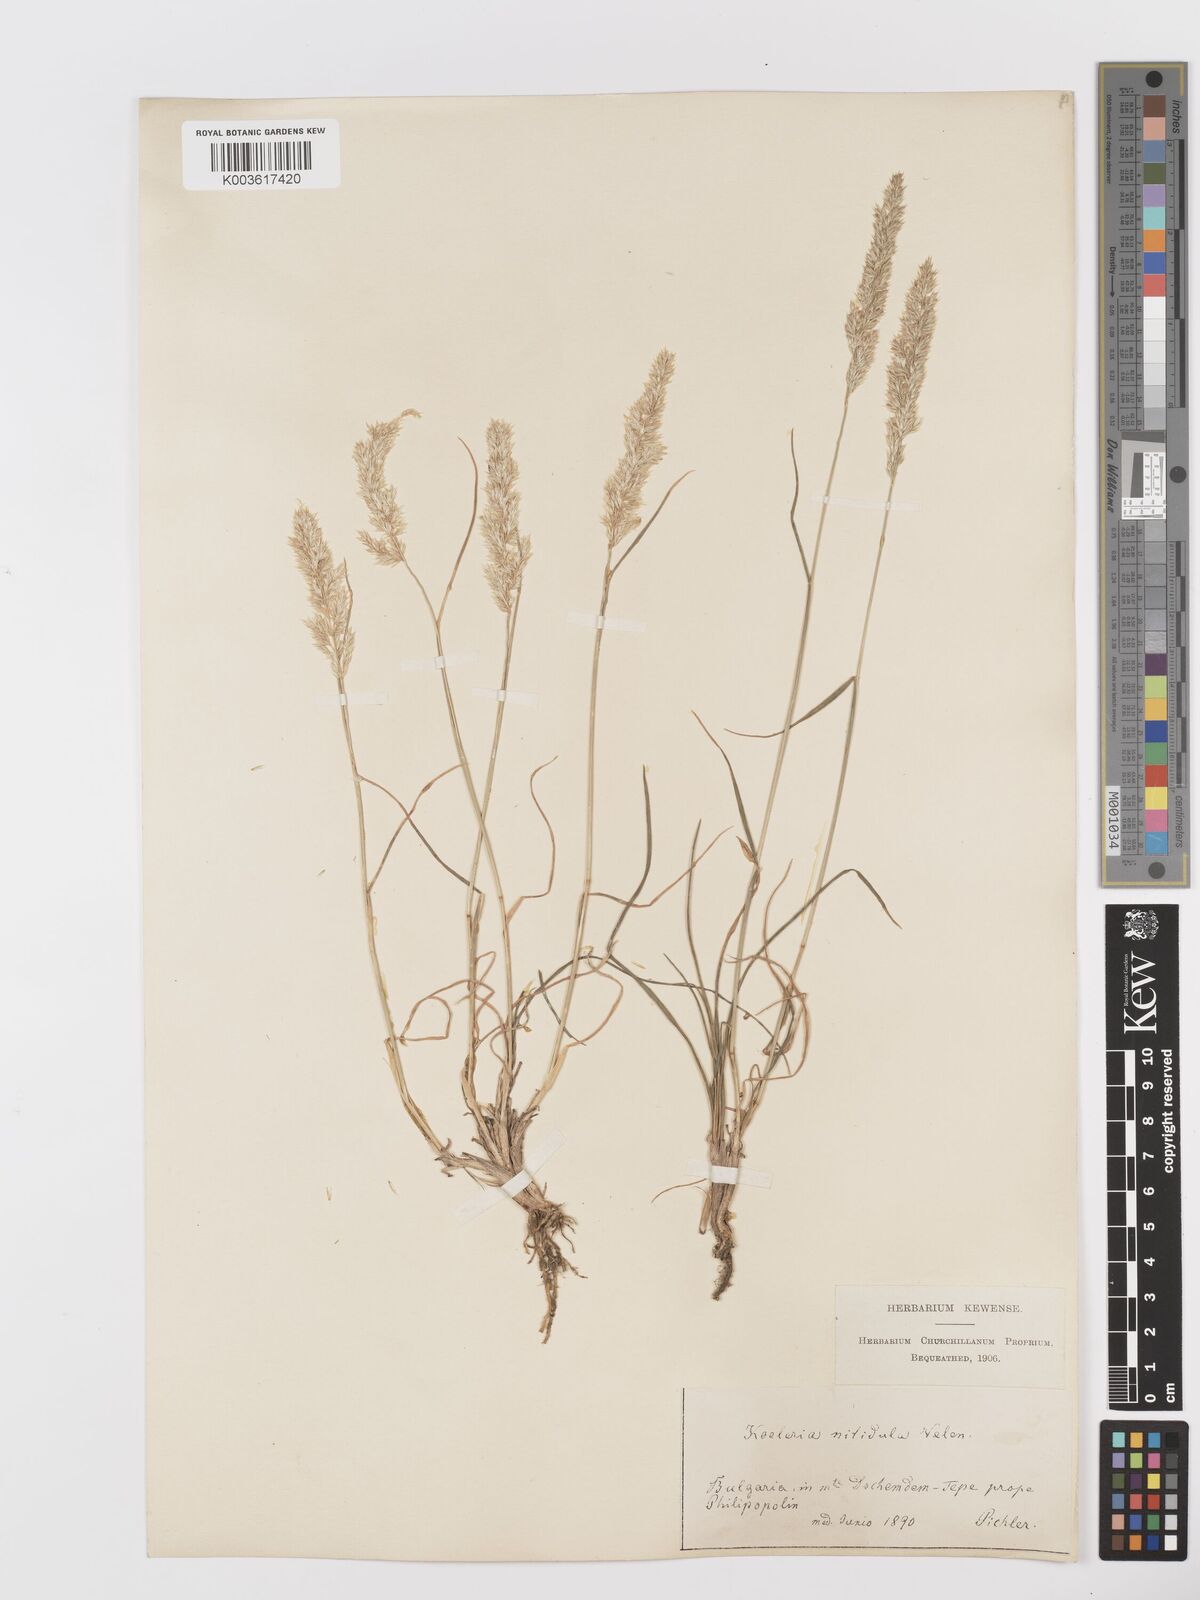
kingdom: Plantae
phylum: Tracheophyta
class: Liliopsida
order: Poales
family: Poaceae
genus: Koeleria
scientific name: Koeleria nitidula
